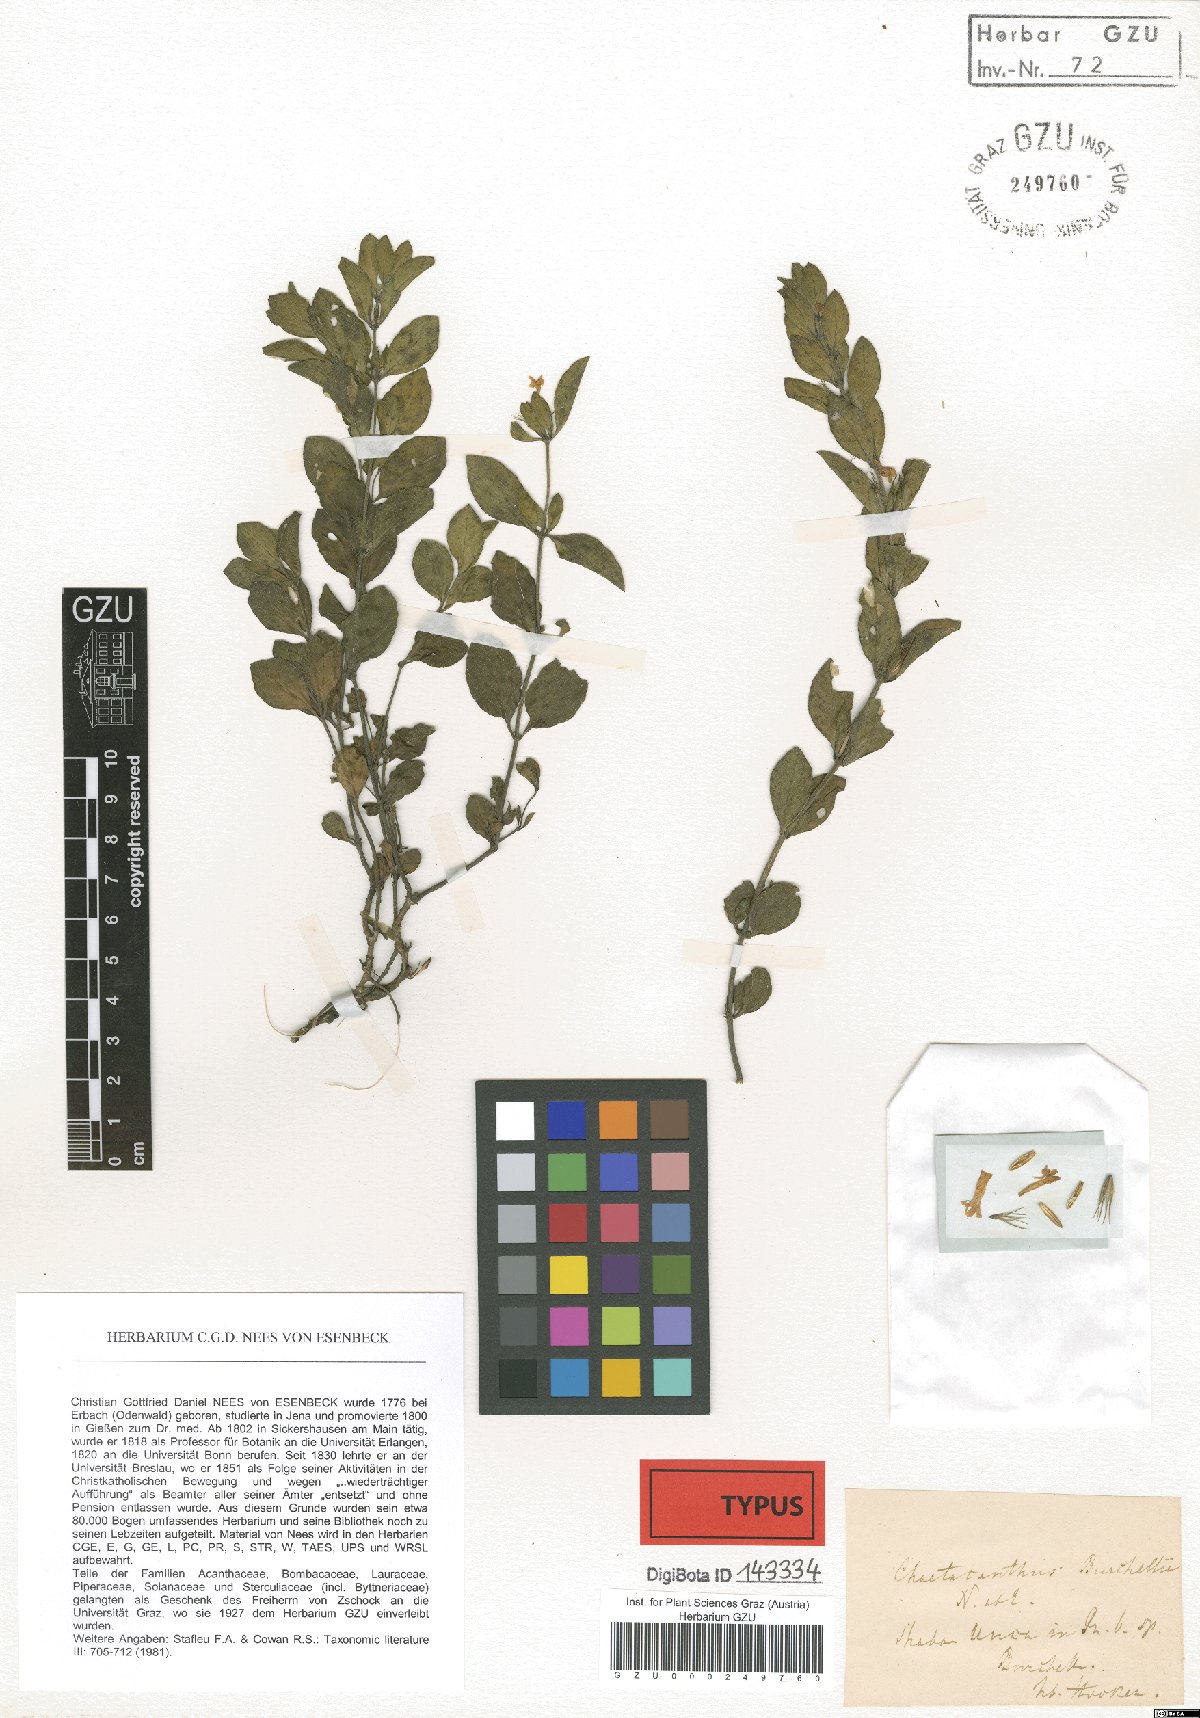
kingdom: Plantae
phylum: Tracheophyta
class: Magnoliopsida
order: Lamiales
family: Acanthaceae
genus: Dyschoriste
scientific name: Dyschoriste radicans
